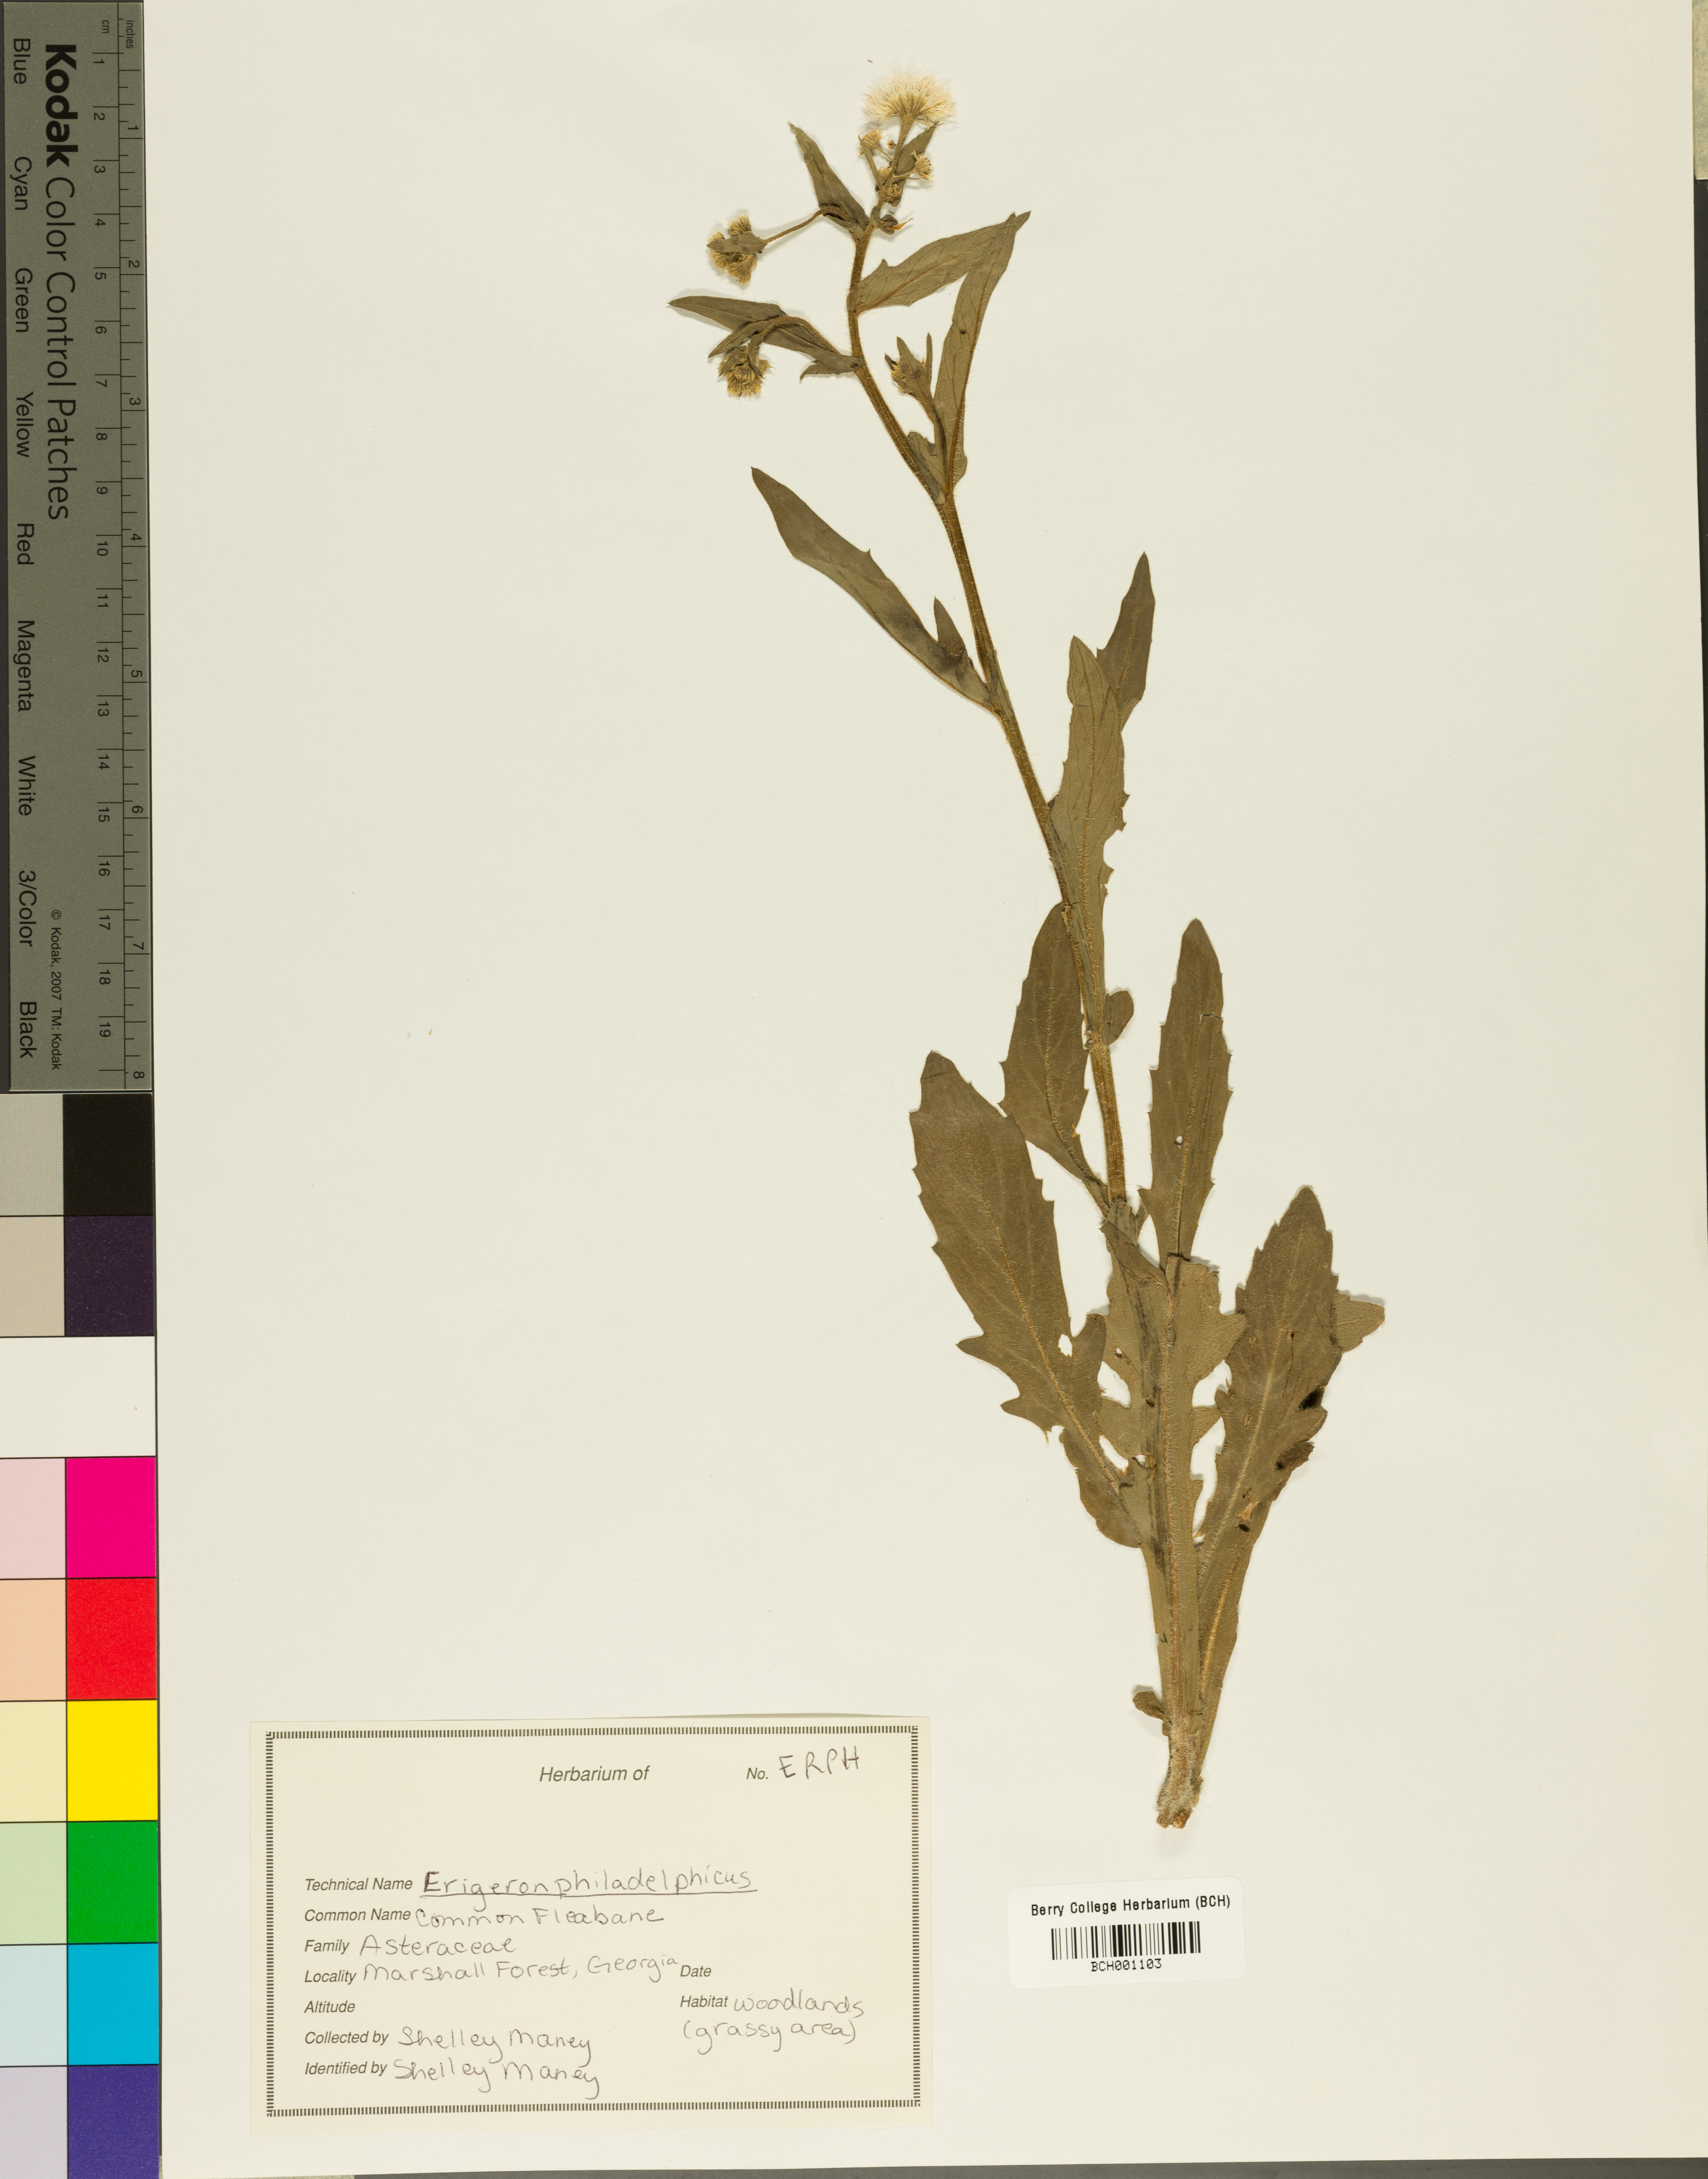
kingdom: Plantae
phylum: Tracheophyta
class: Magnoliopsida
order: Asterales
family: Asteraceae
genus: Erigeron
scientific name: Erigeron philadelphicus
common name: Robin's-plantain
